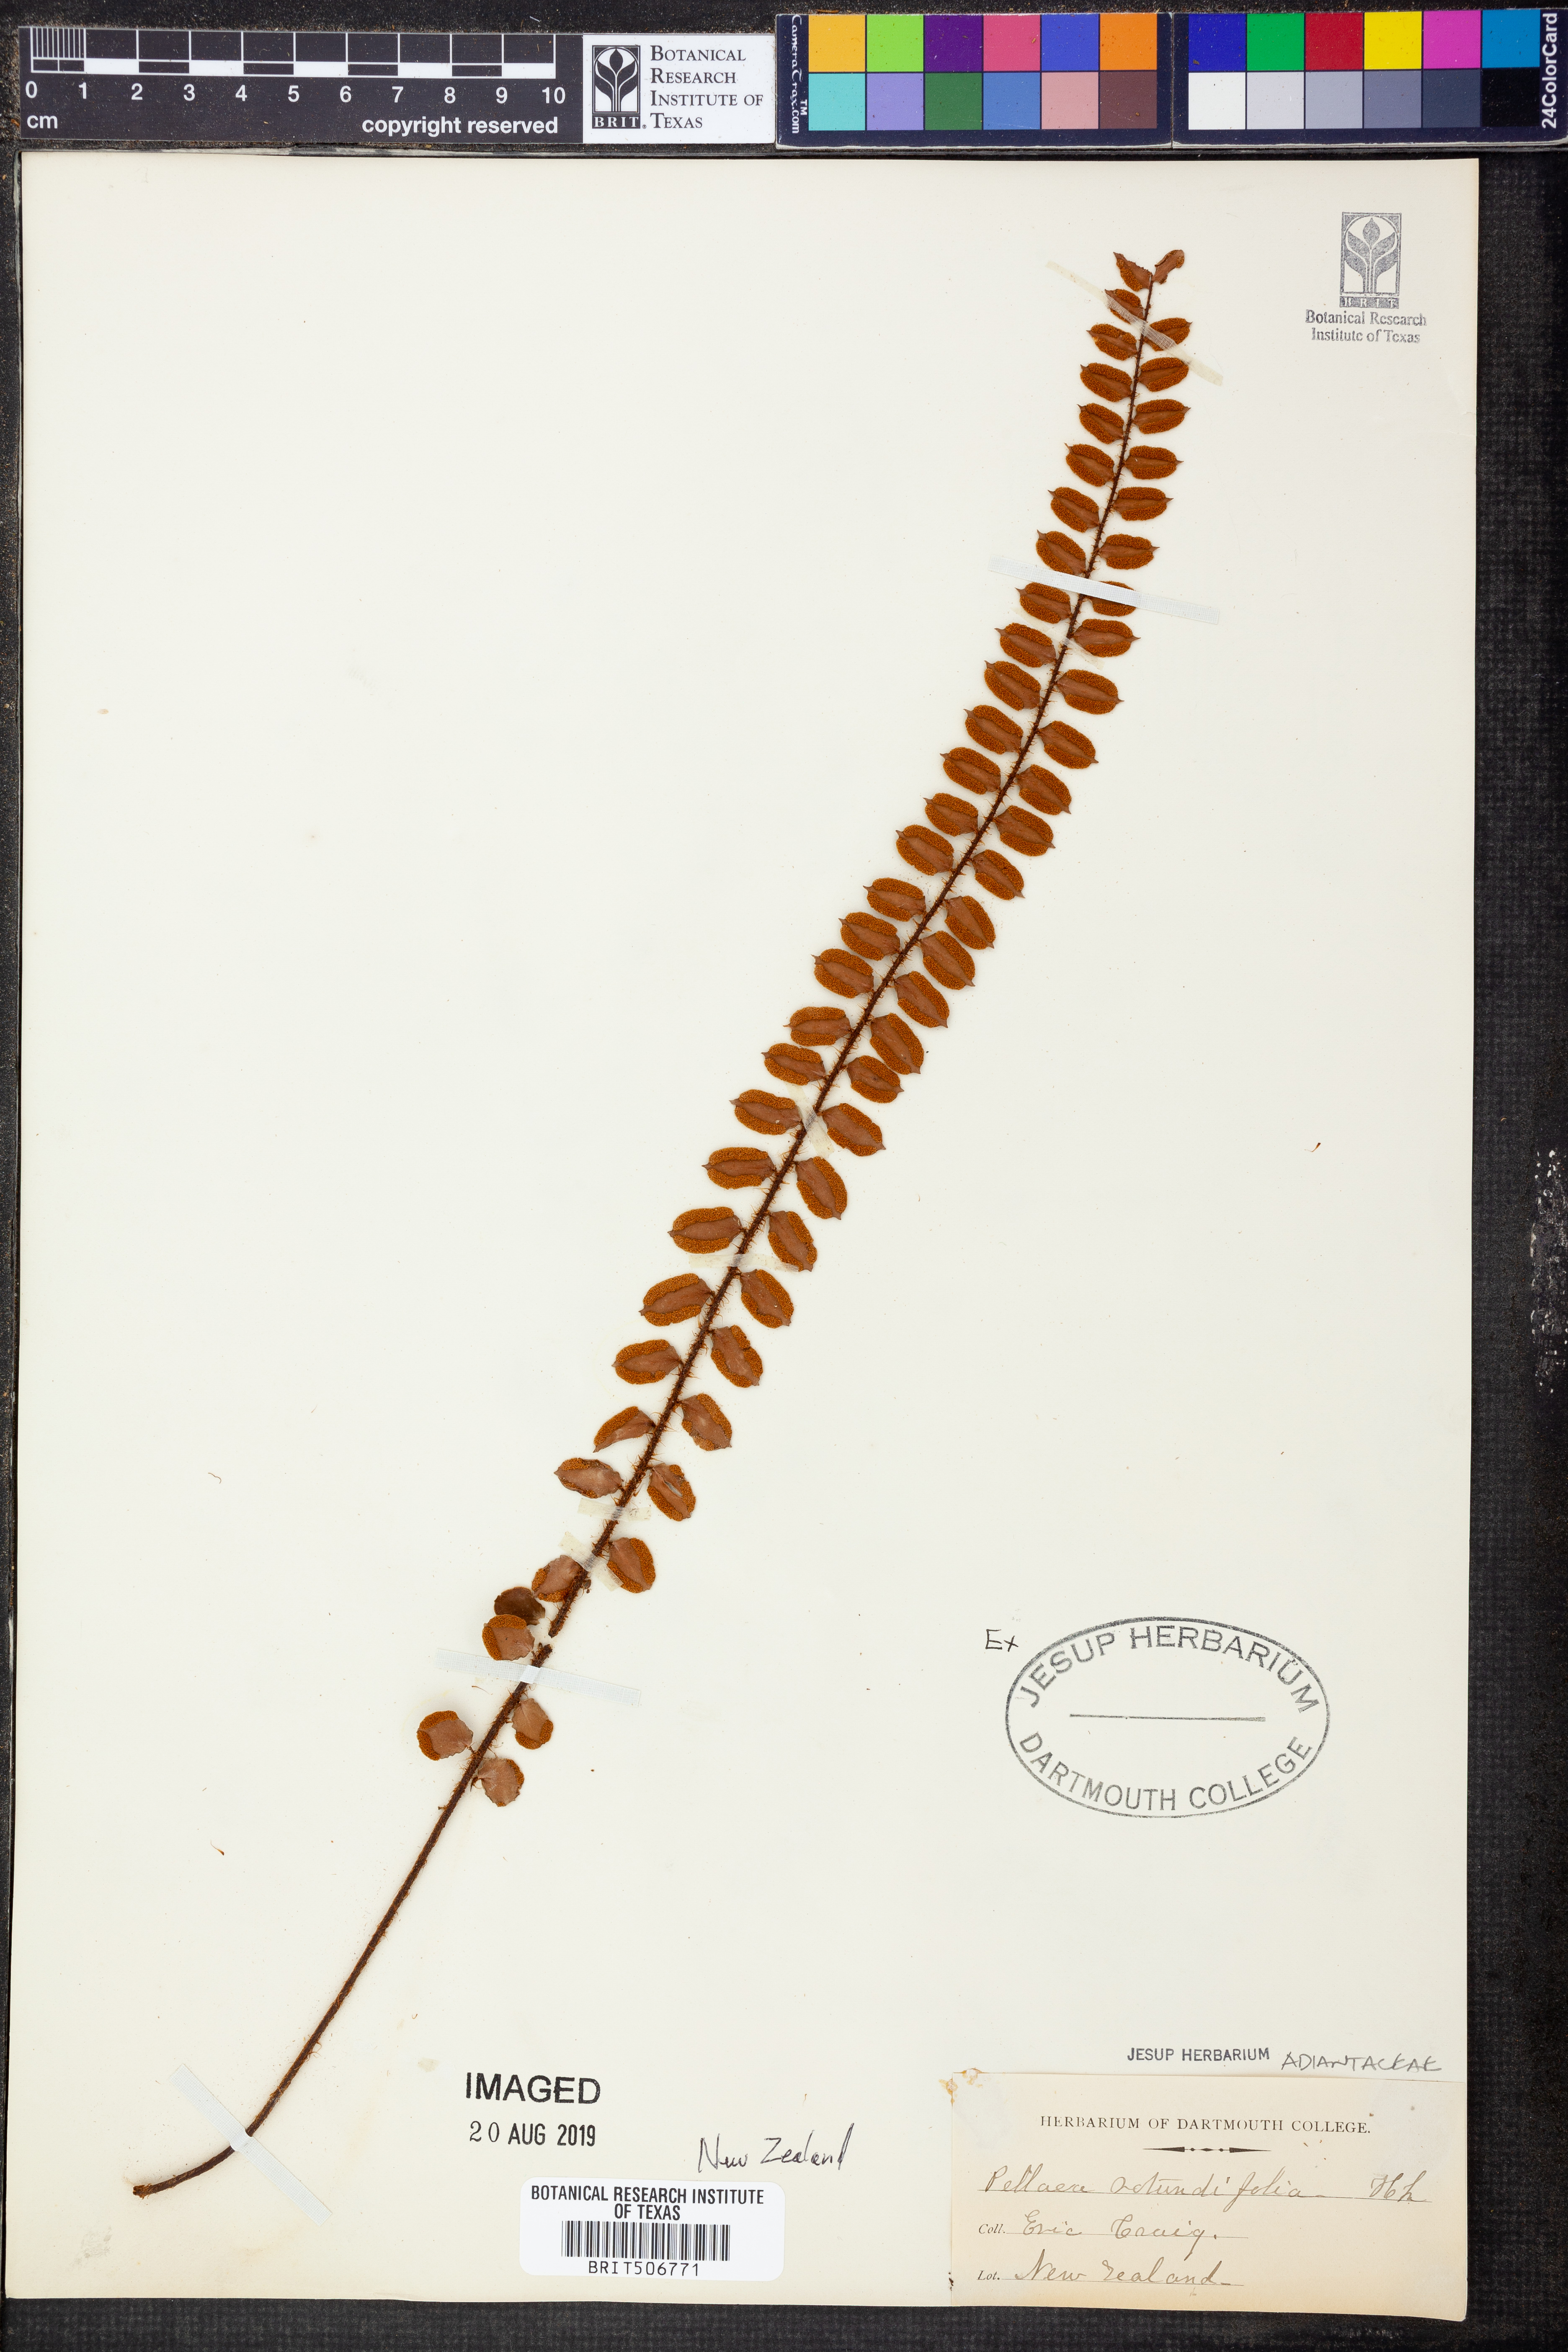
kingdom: Plantae
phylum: Tracheophyta
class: Polypodiopsida
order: Polypodiales
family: Pteridaceae
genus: Pellaea
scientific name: Pellaea rotundifolia
